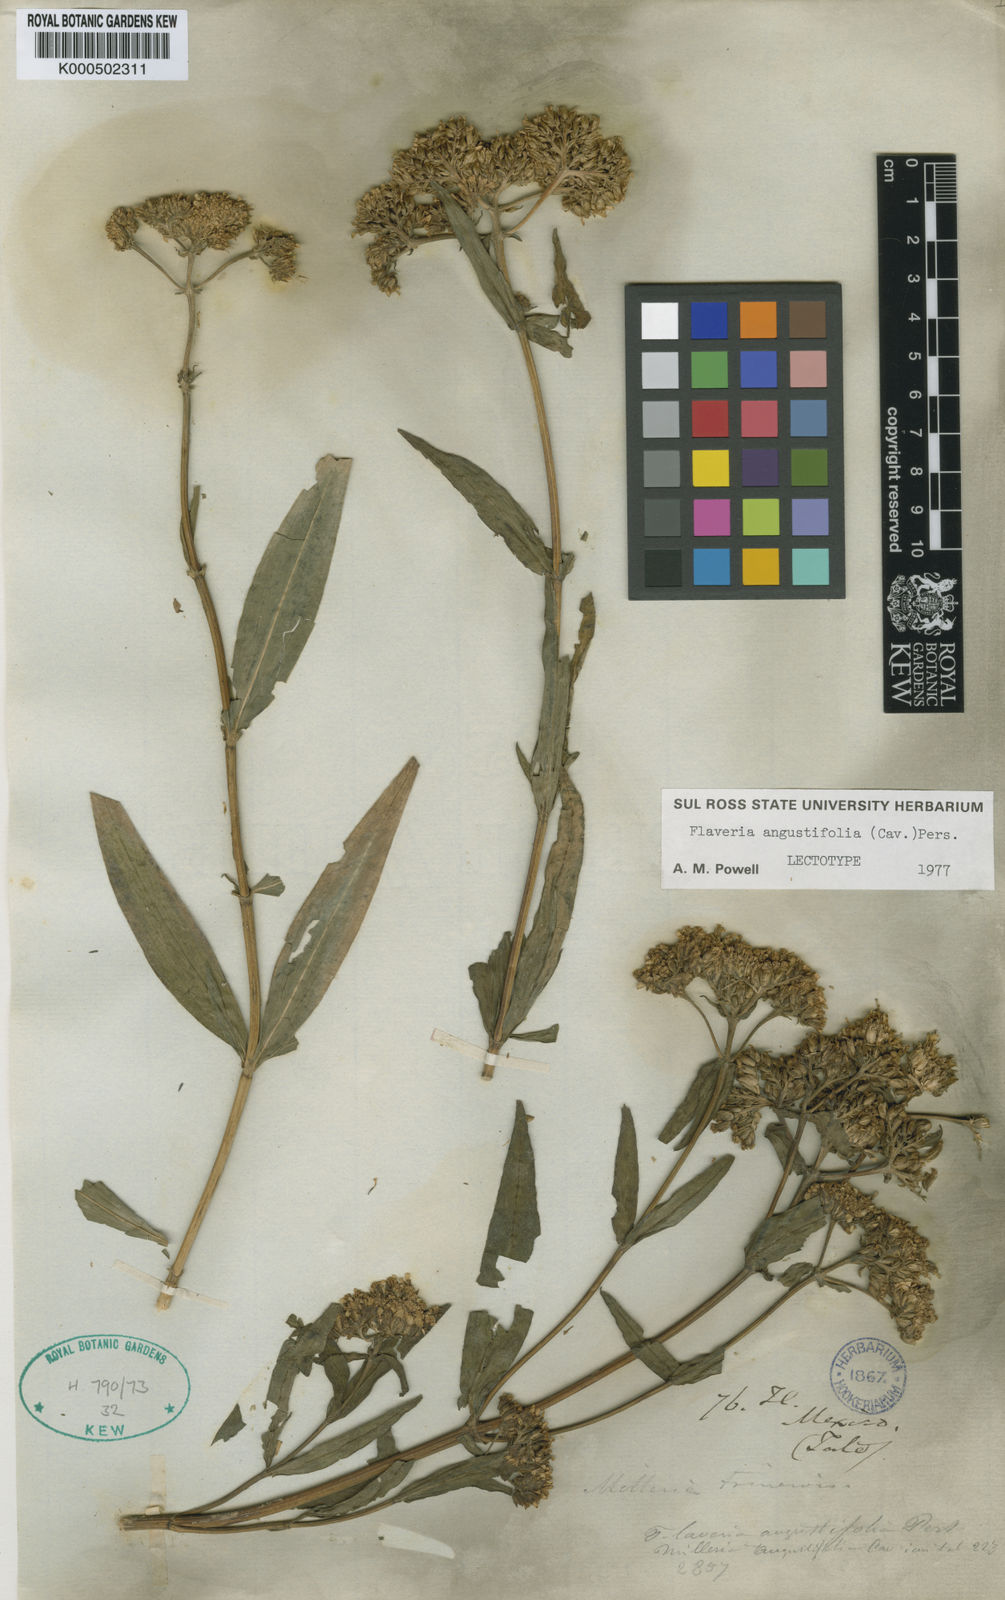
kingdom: Plantae
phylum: Tracheophyta
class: Magnoliopsida
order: Asterales
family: Asteraceae
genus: Flaveria
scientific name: Flaveria angustifolia
